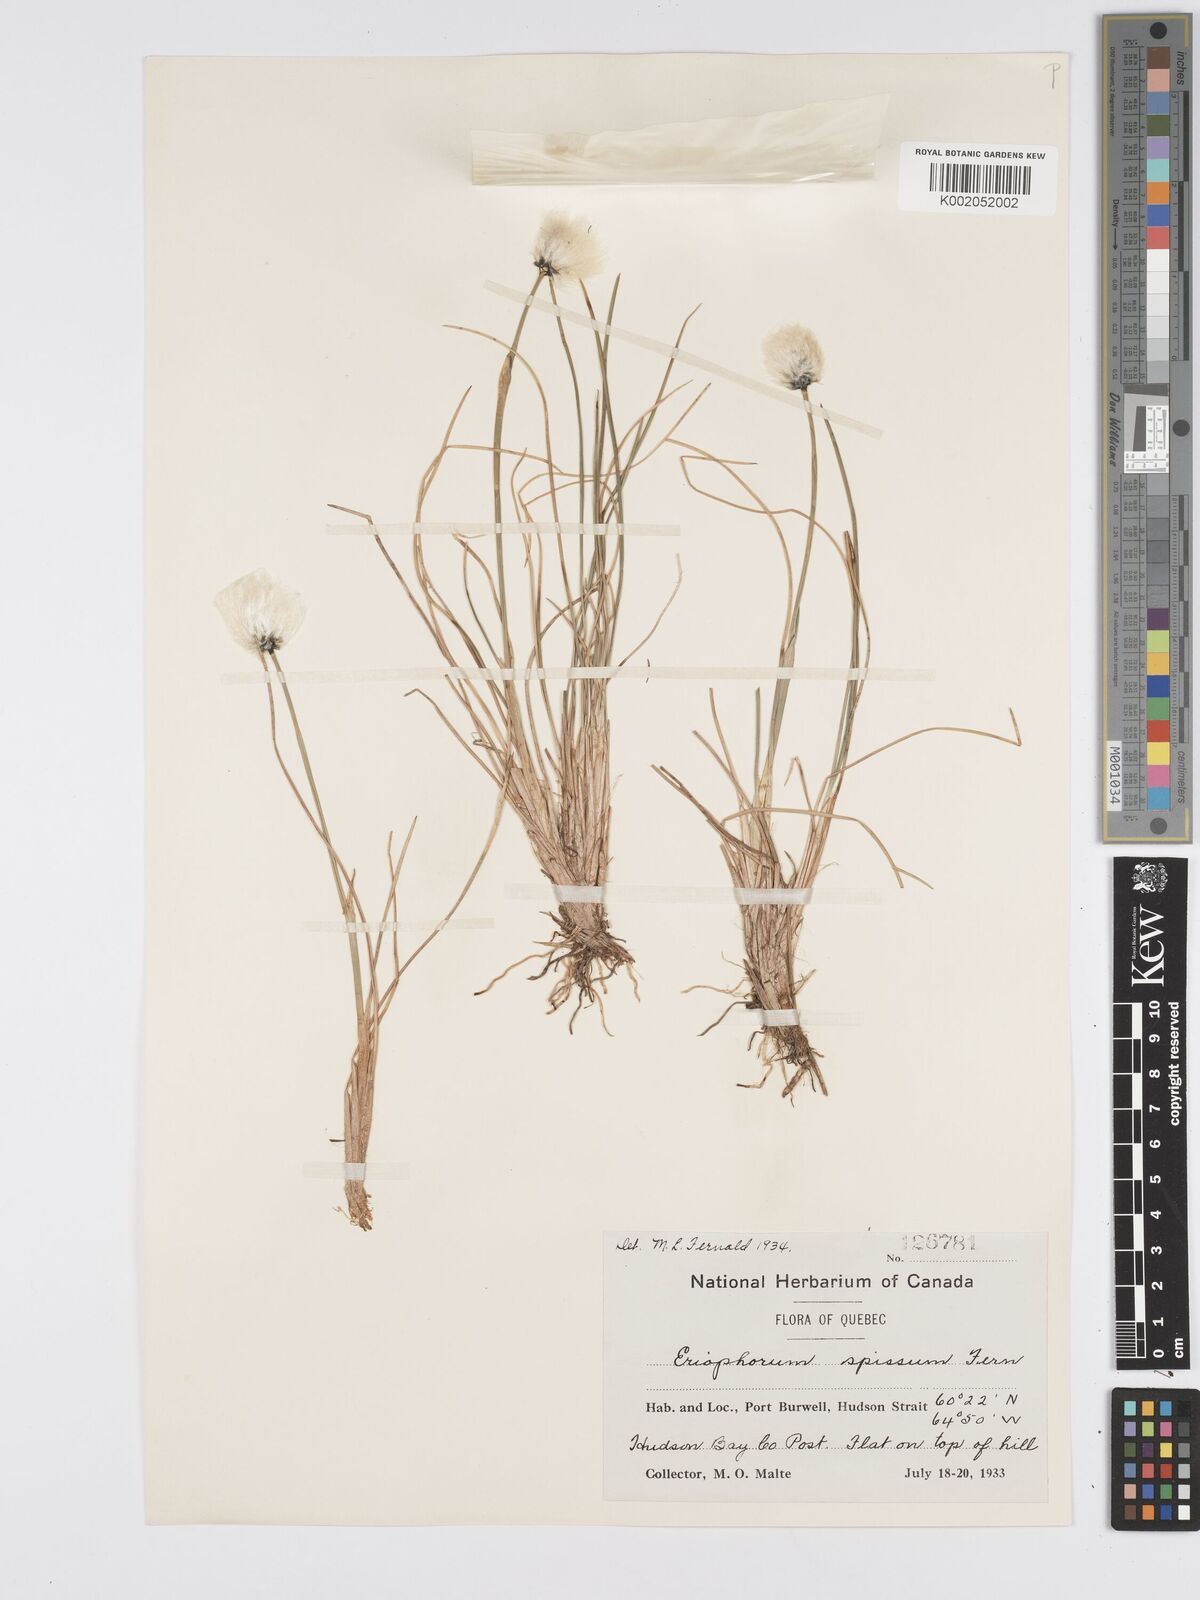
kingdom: Plantae
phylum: Tracheophyta
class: Liliopsida
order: Poales
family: Cyperaceae
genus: Eriophorum
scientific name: Eriophorum vaginatum
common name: Hare's-tail cottongrass
